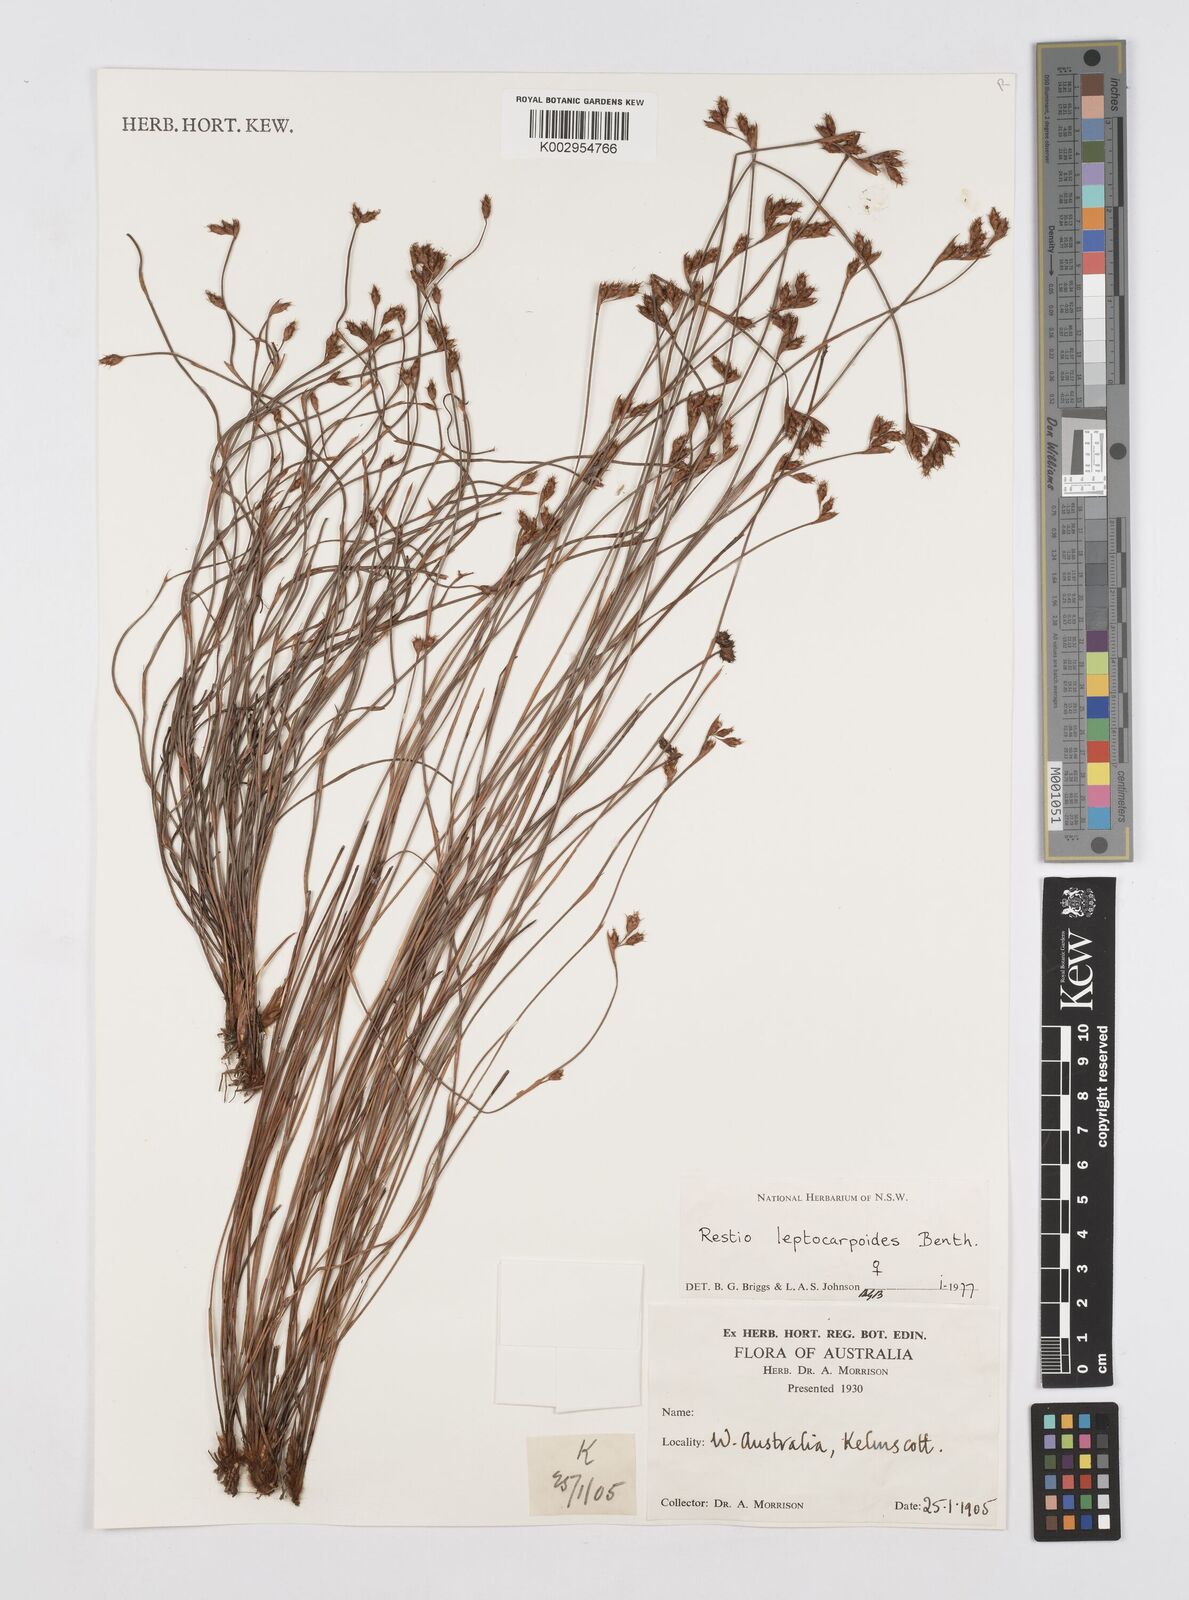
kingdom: Plantae
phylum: Tracheophyta
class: Liliopsida
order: Poales
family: Restionaceae
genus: Cytogonidium
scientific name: Cytogonidium leptocarpoides
